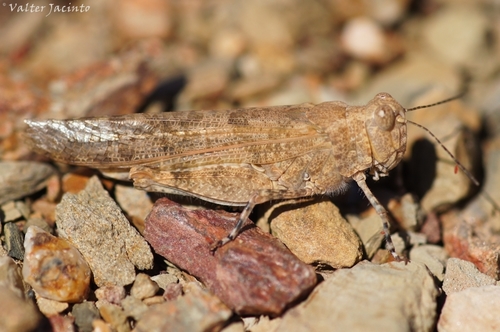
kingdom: Animalia
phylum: Arthropoda
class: Insecta
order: Orthoptera
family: Acrididae
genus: Sphingonotus
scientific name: Sphingonotus rubescens
